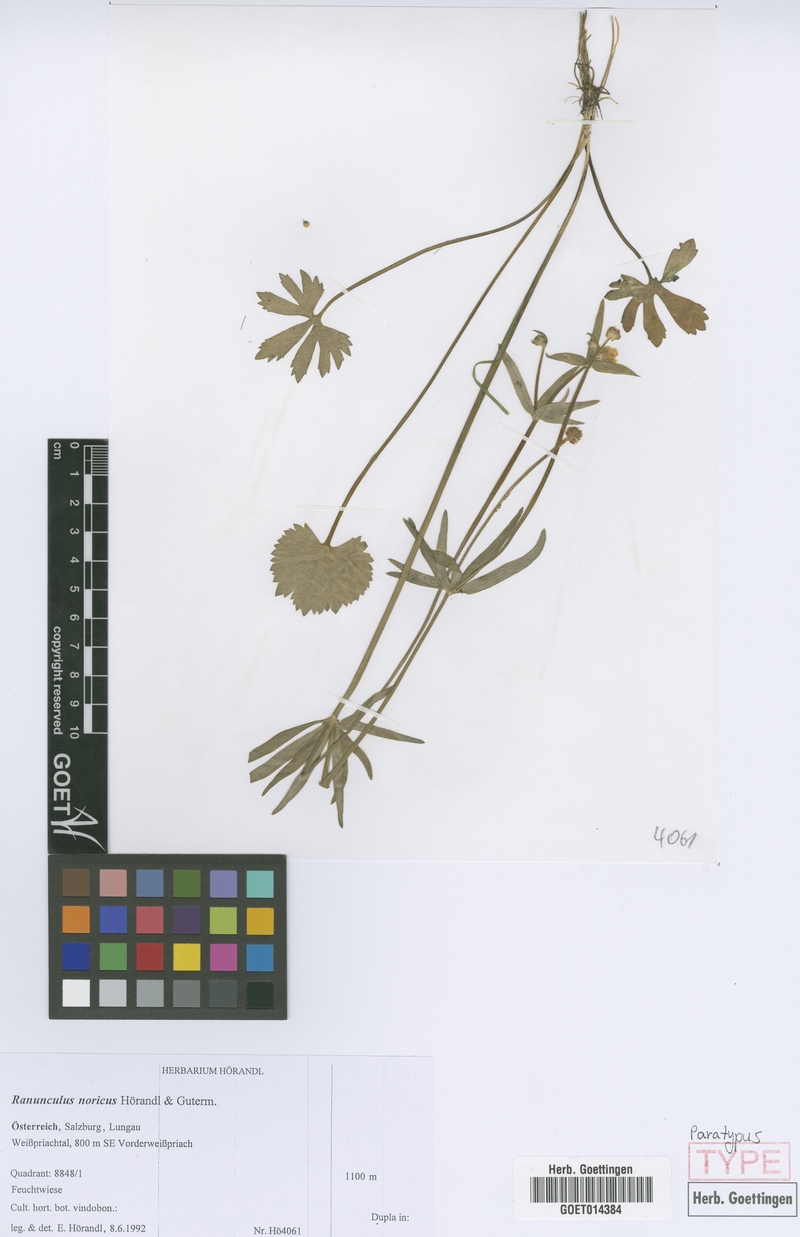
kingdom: Plantae
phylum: Tracheophyta
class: Magnoliopsida
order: Ranunculales
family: Ranunculaceae
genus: Ranunculus
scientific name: Ranunculus noricus
